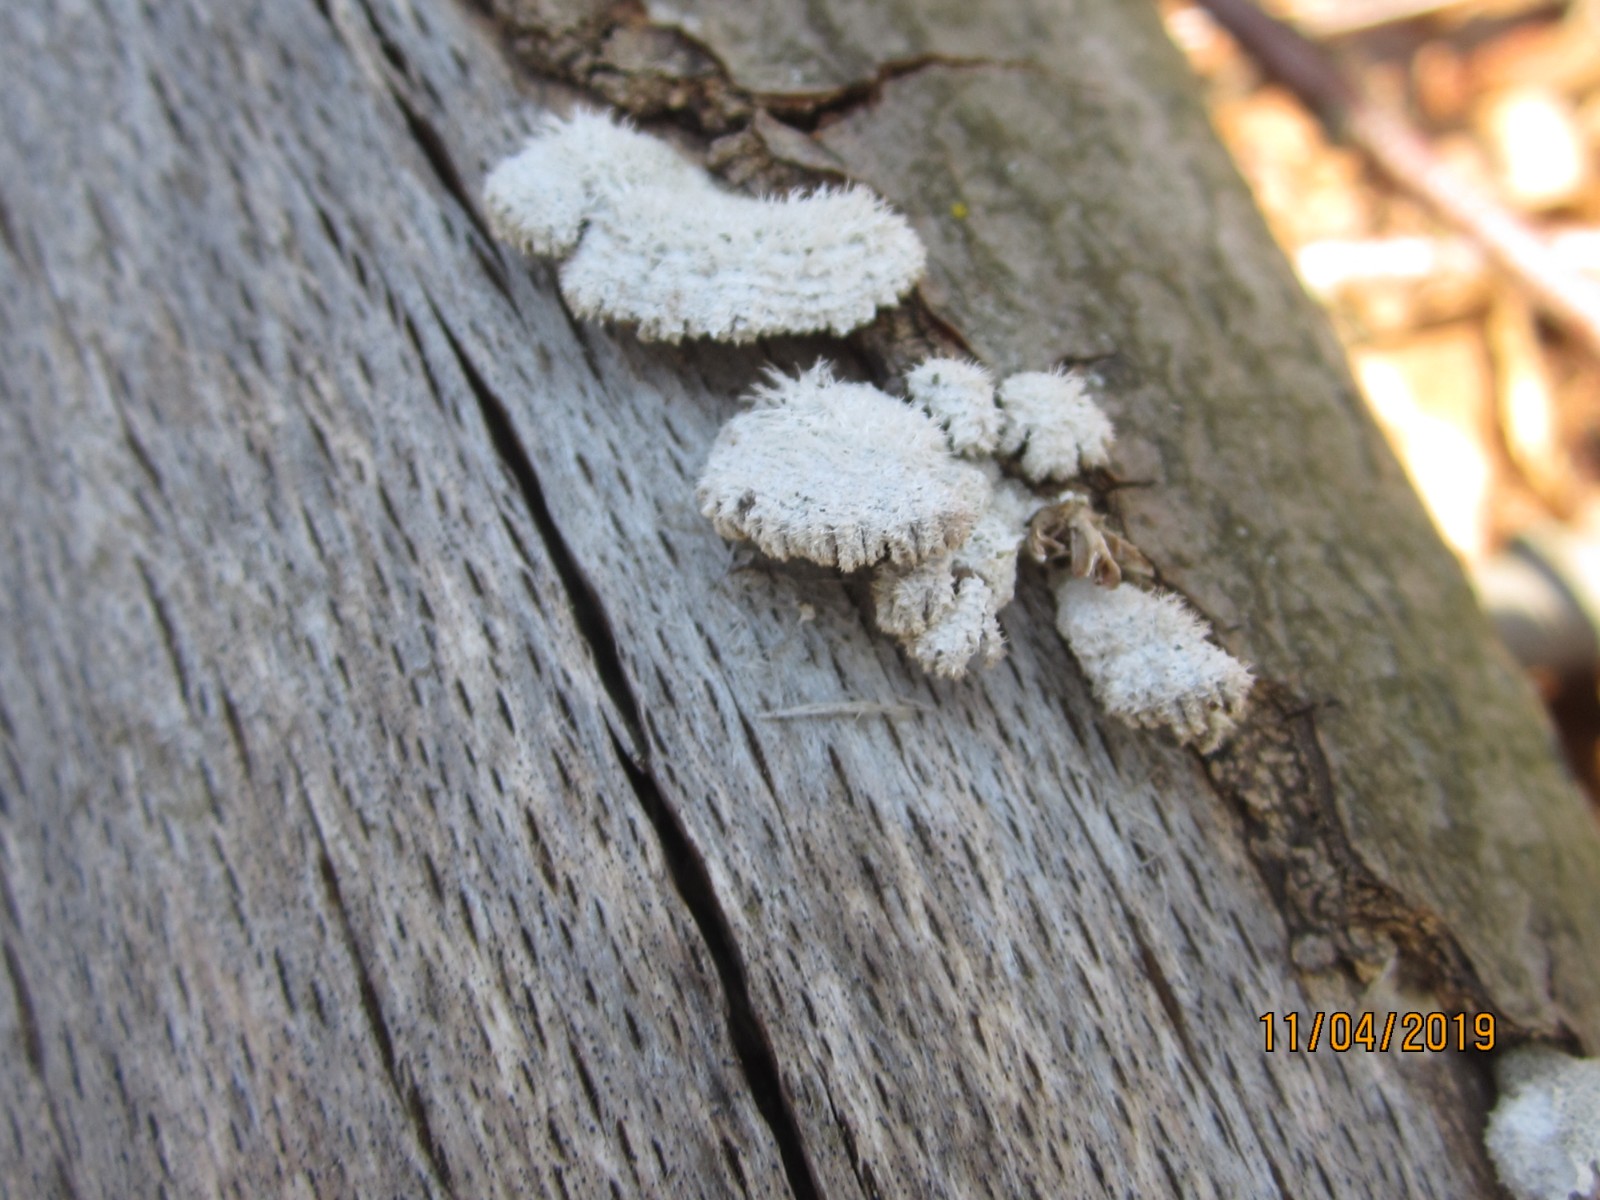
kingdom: Fungi
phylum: Basidiomycota
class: Agaricomycetes
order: Agaricales
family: Schizophyllaceae
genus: Schizophyllum
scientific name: Schizophyllum commune
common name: kløvblad
